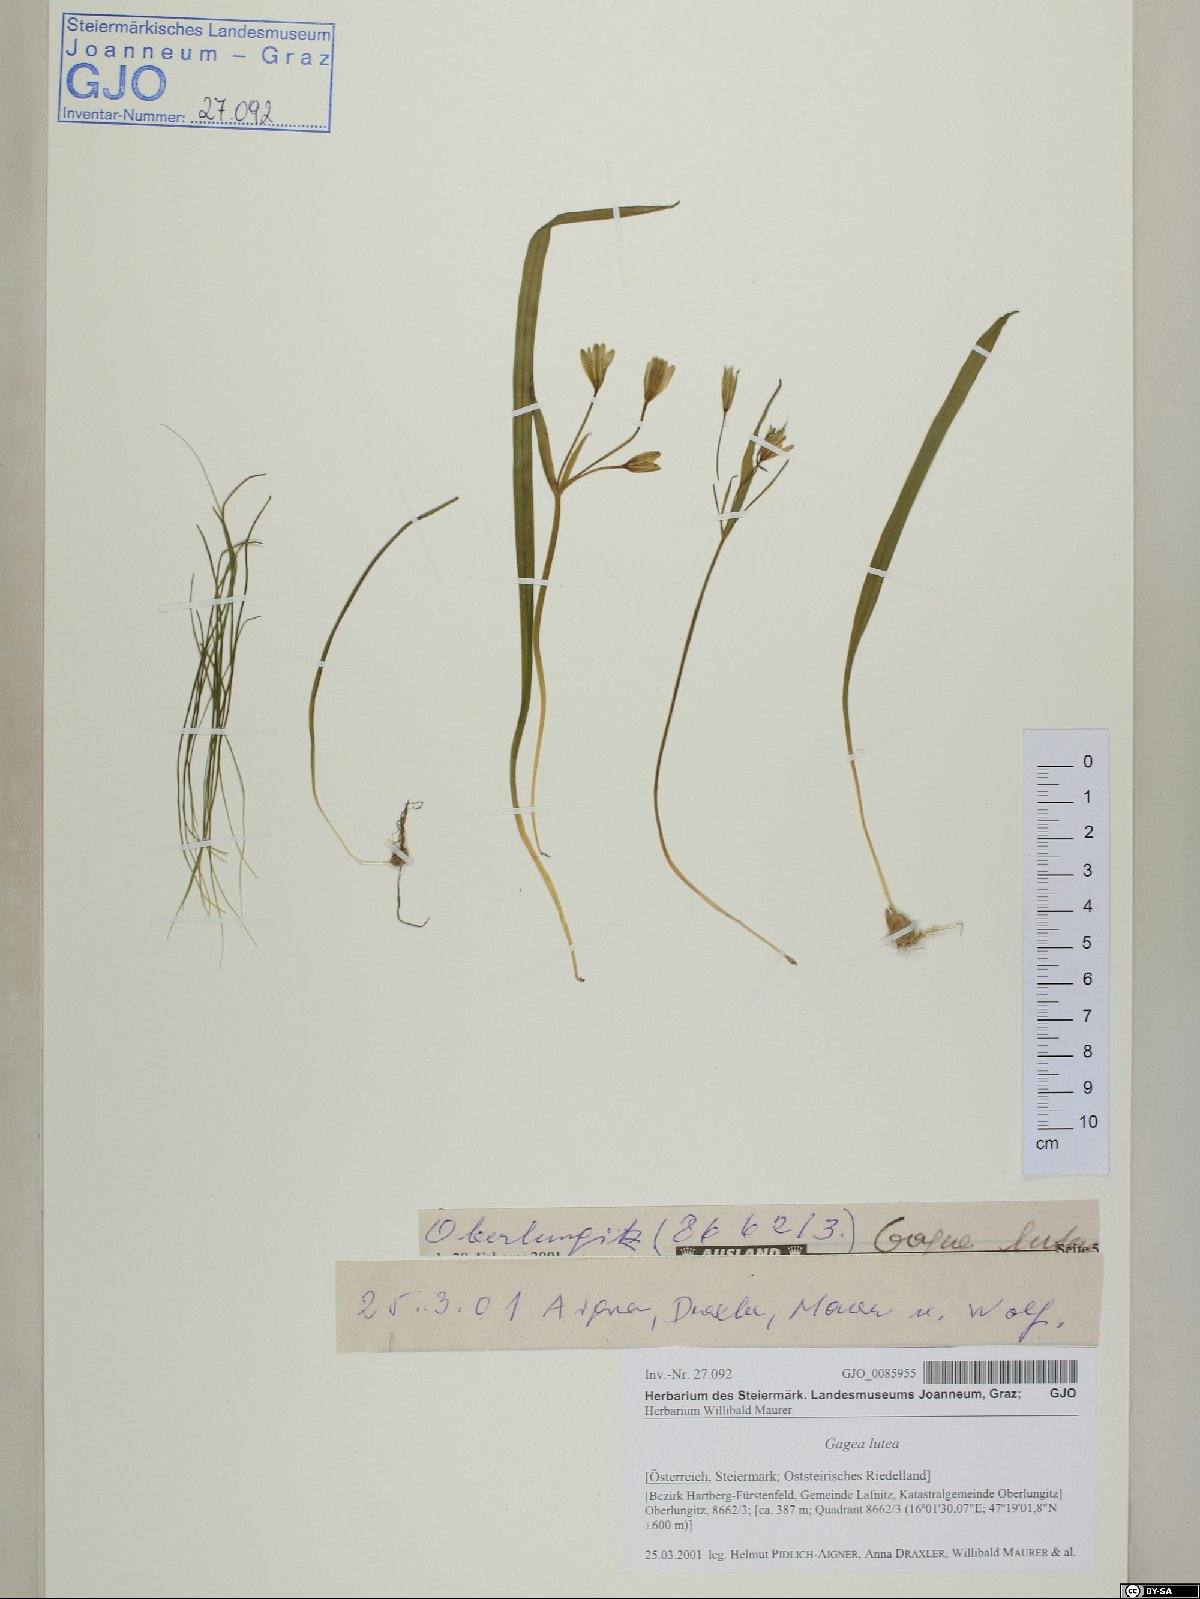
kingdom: Plantae
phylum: Tracheophyta
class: Liliopsida
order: Liliales
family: Liliaceae
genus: Gagea
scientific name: Gagea lutea
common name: Yellow star-of-bethlehem
